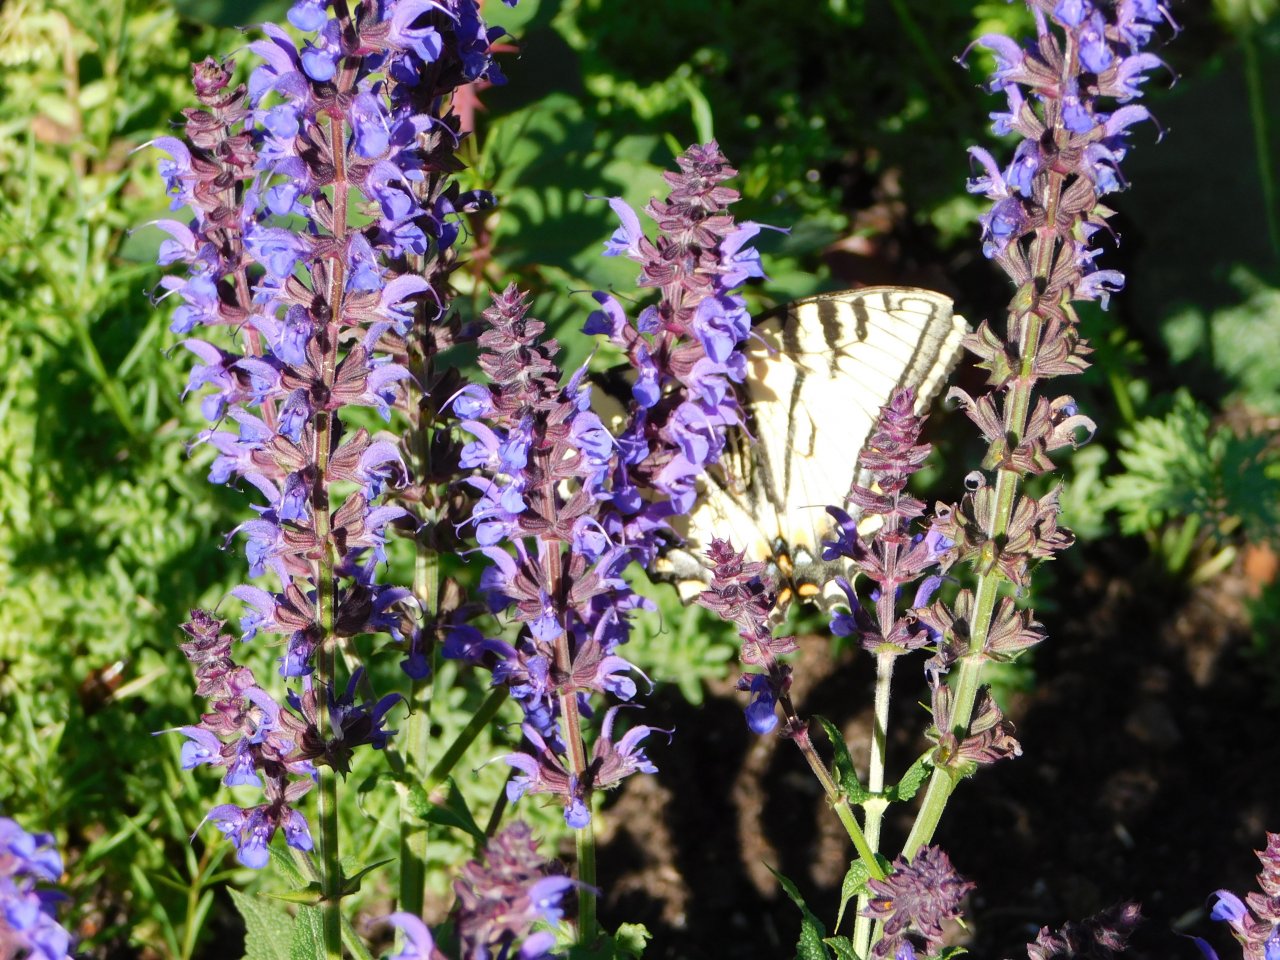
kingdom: Animalia
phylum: Arthropoda
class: Insecta
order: Lepidoptera
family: Papilionidae
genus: Pterourus
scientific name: Pterourus canadensis
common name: Canadian Tiger Swallowtail
